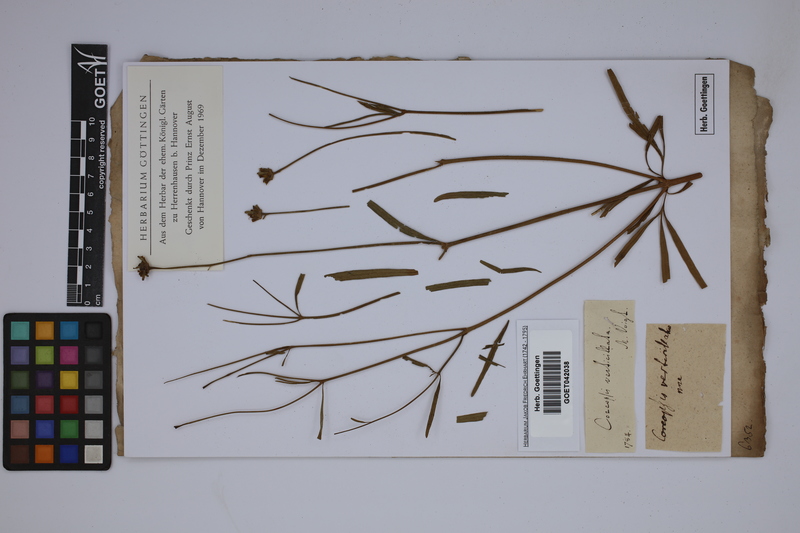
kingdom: Plantae
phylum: Tracheophyta
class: Magnoliopsida
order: Asterales
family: Asteraceae
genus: Coreopsis
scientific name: Coreopsis verticillata
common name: Whorled tickseed
